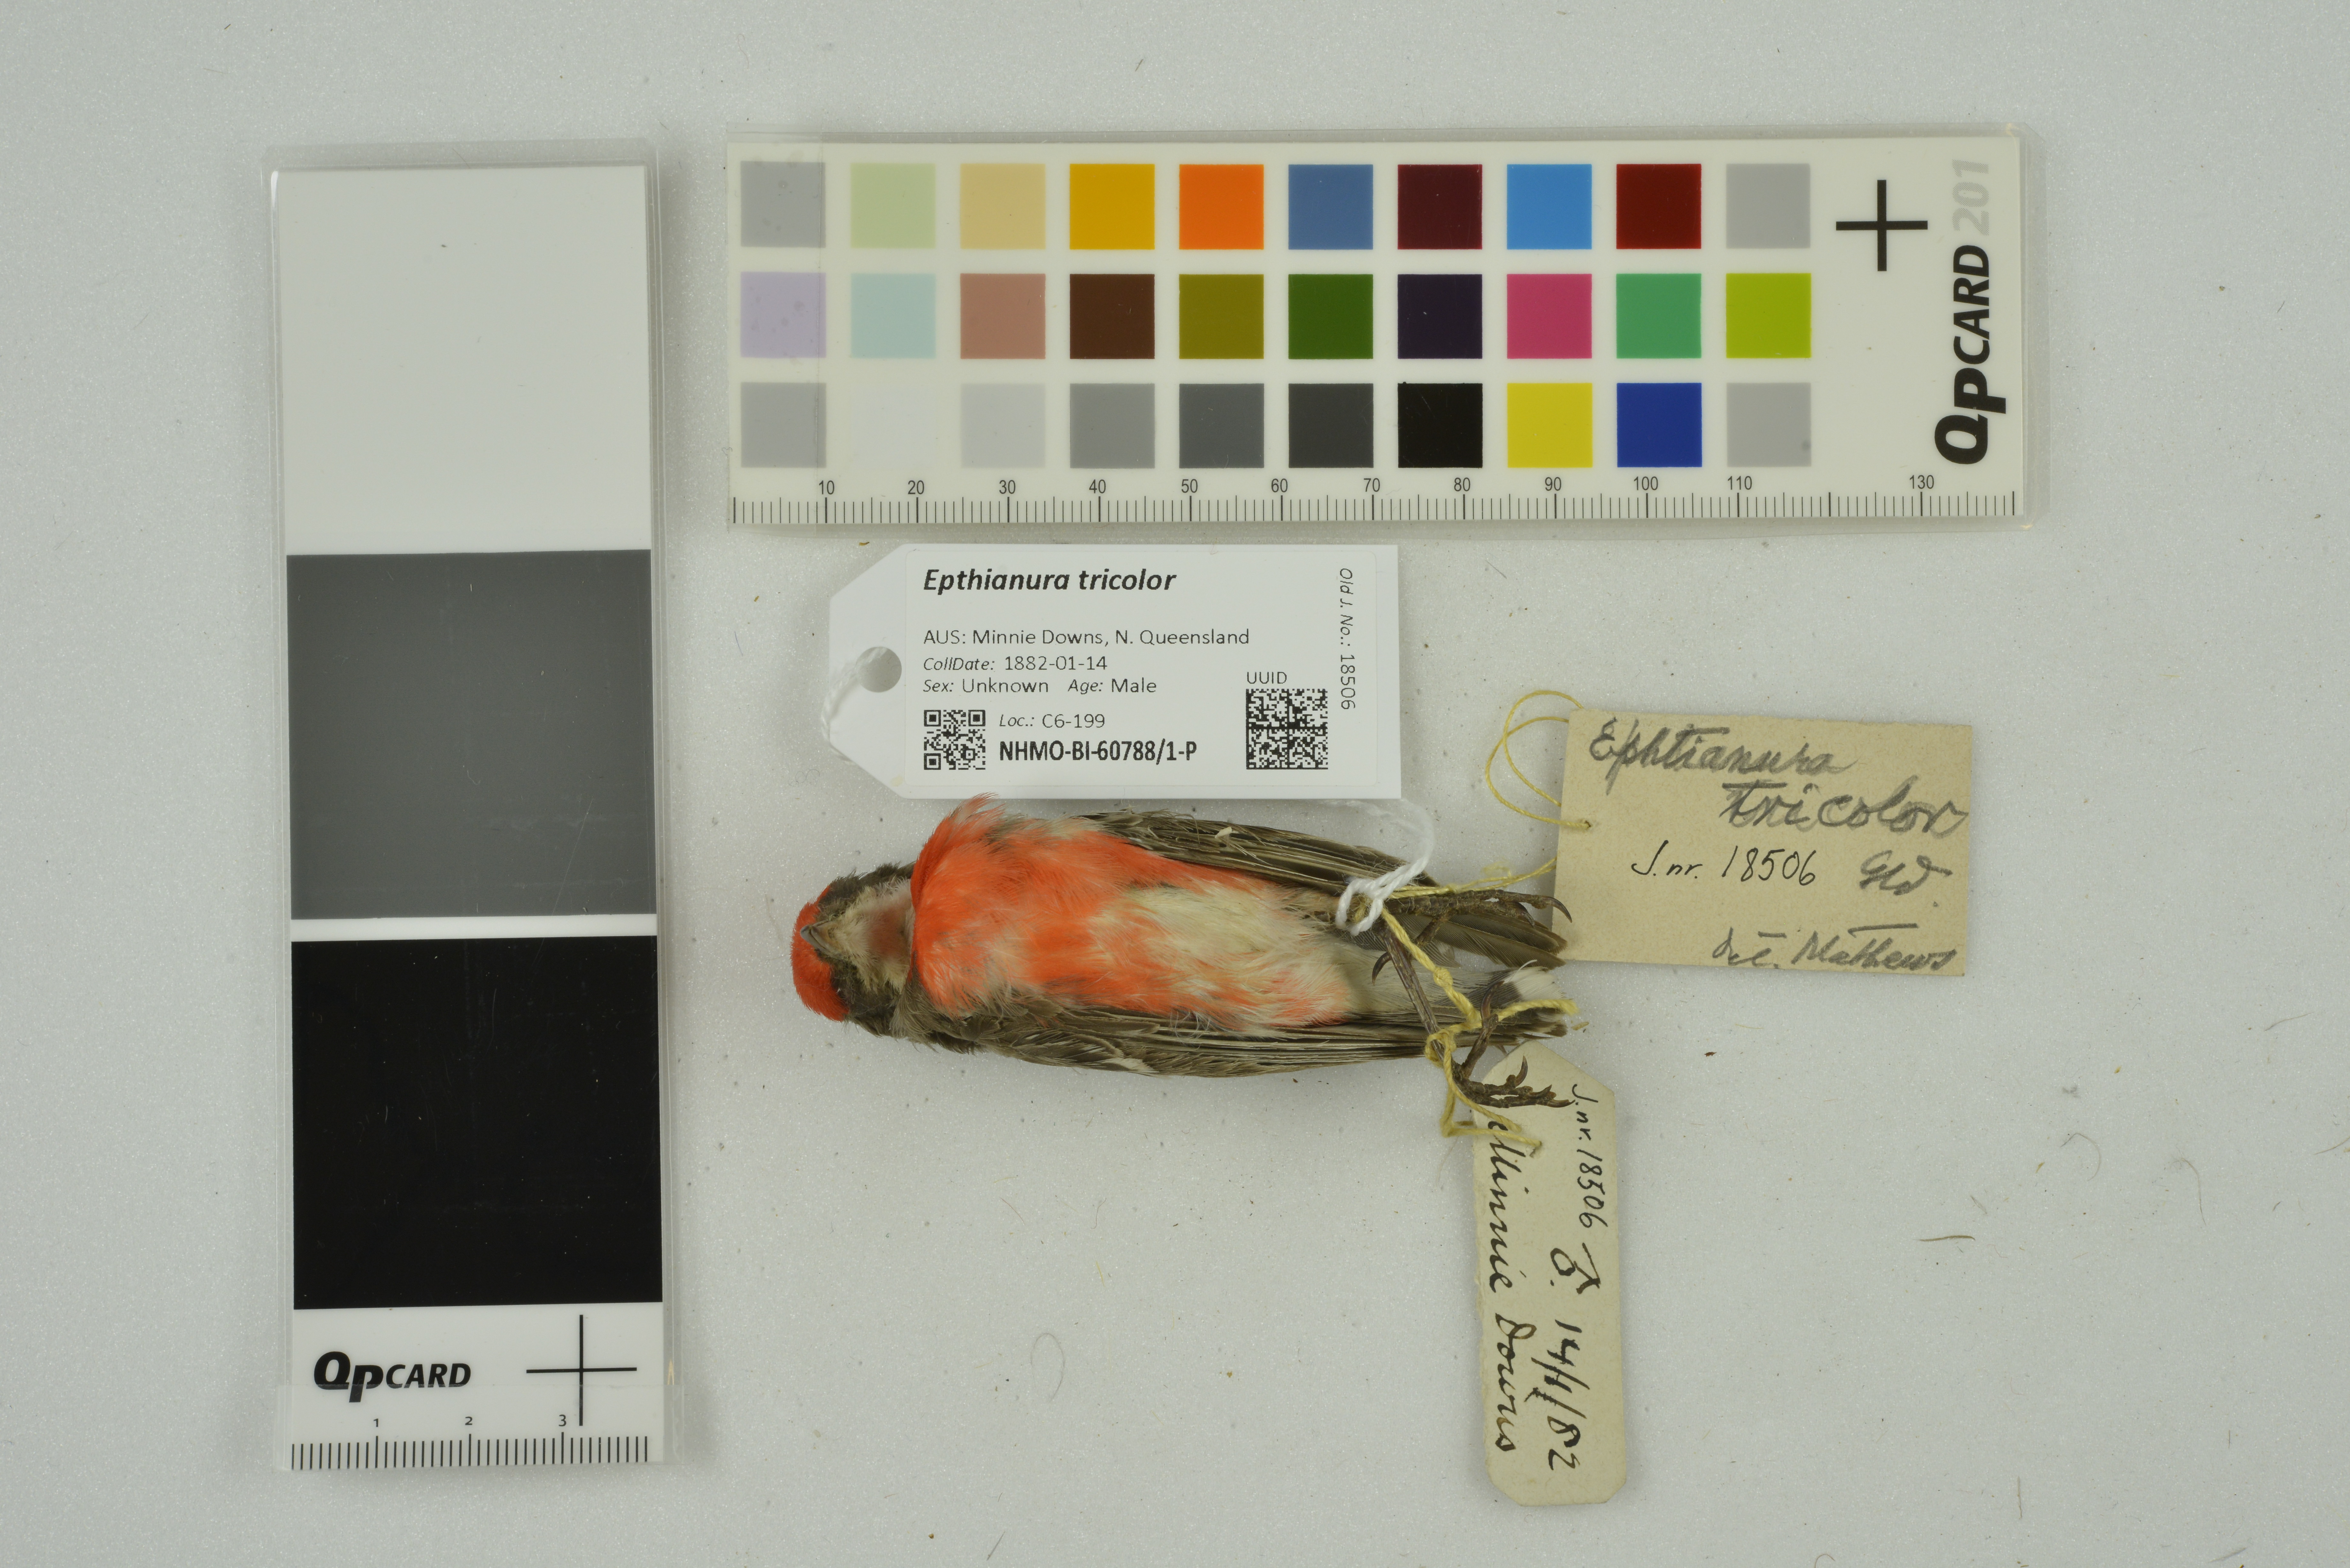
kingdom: Animalia
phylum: Chordata
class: Aves
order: Passeriformes
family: Meliphagidae
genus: Epthianura
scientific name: Epthianura tricolor
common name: Crimson chat
